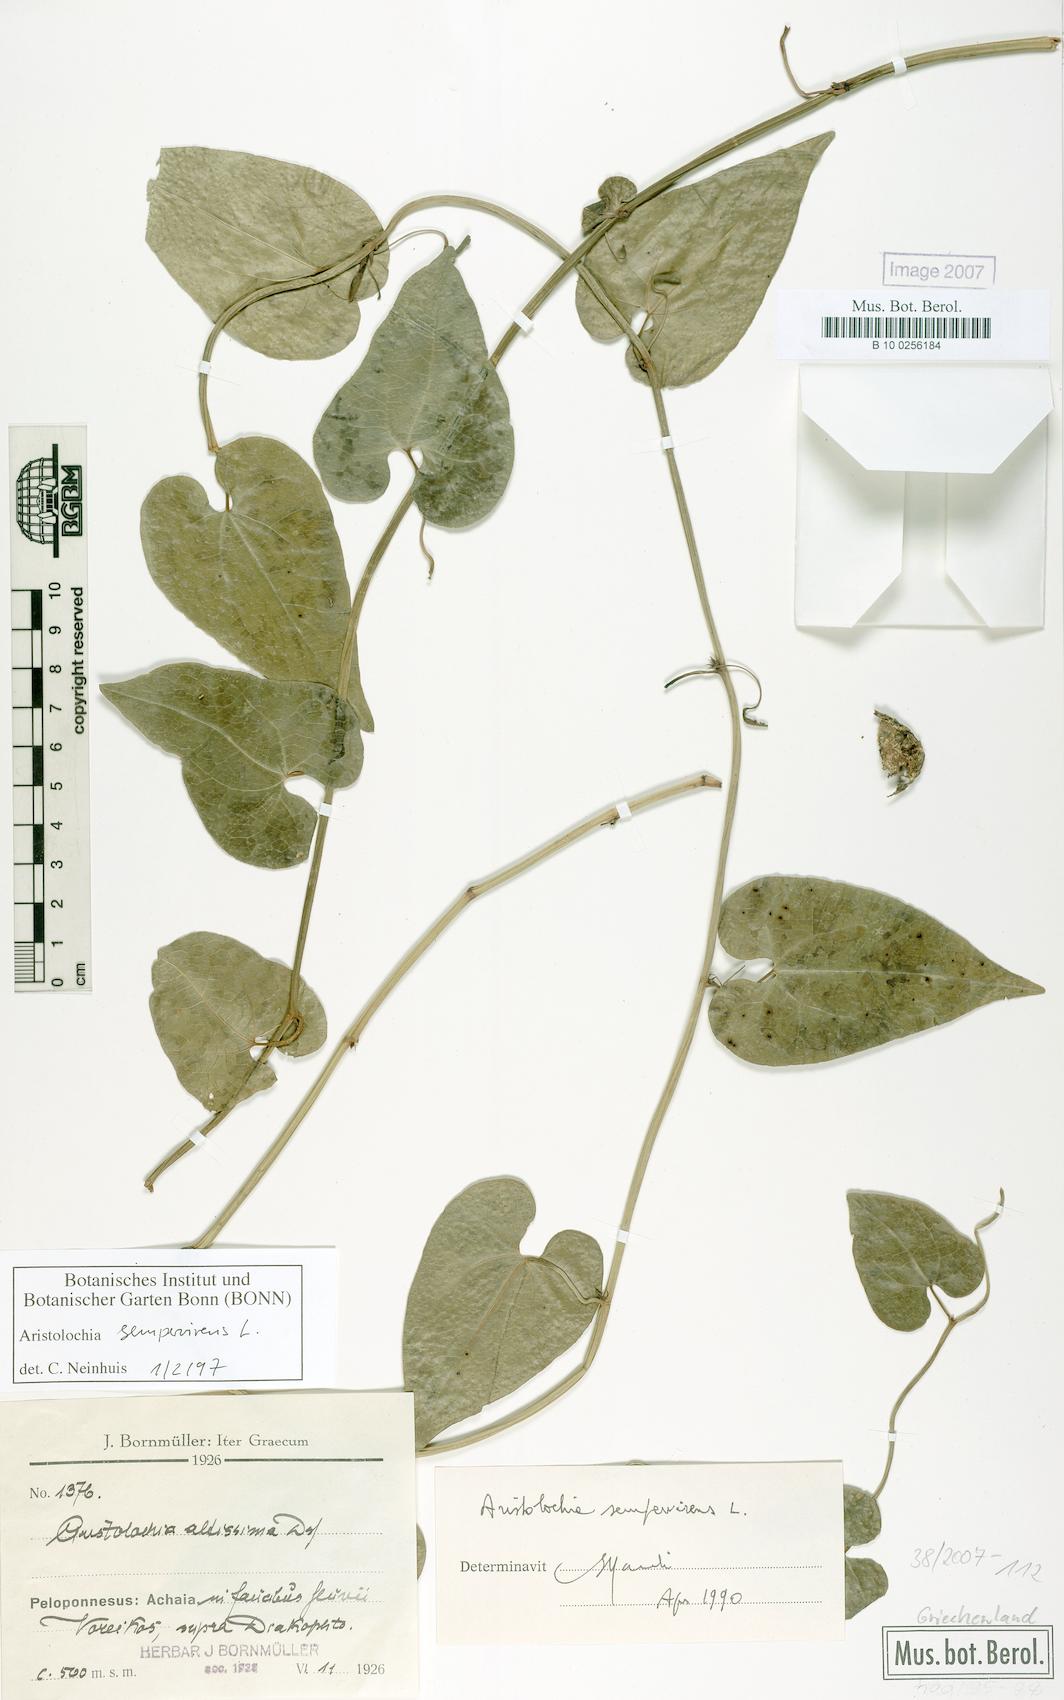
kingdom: Plantae
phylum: Tracheophyta
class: Magnoliopsida
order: Piperales
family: Aristolochiaceae
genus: Aristolochia
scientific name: Aristolochia sempervirens
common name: Long birthwort
